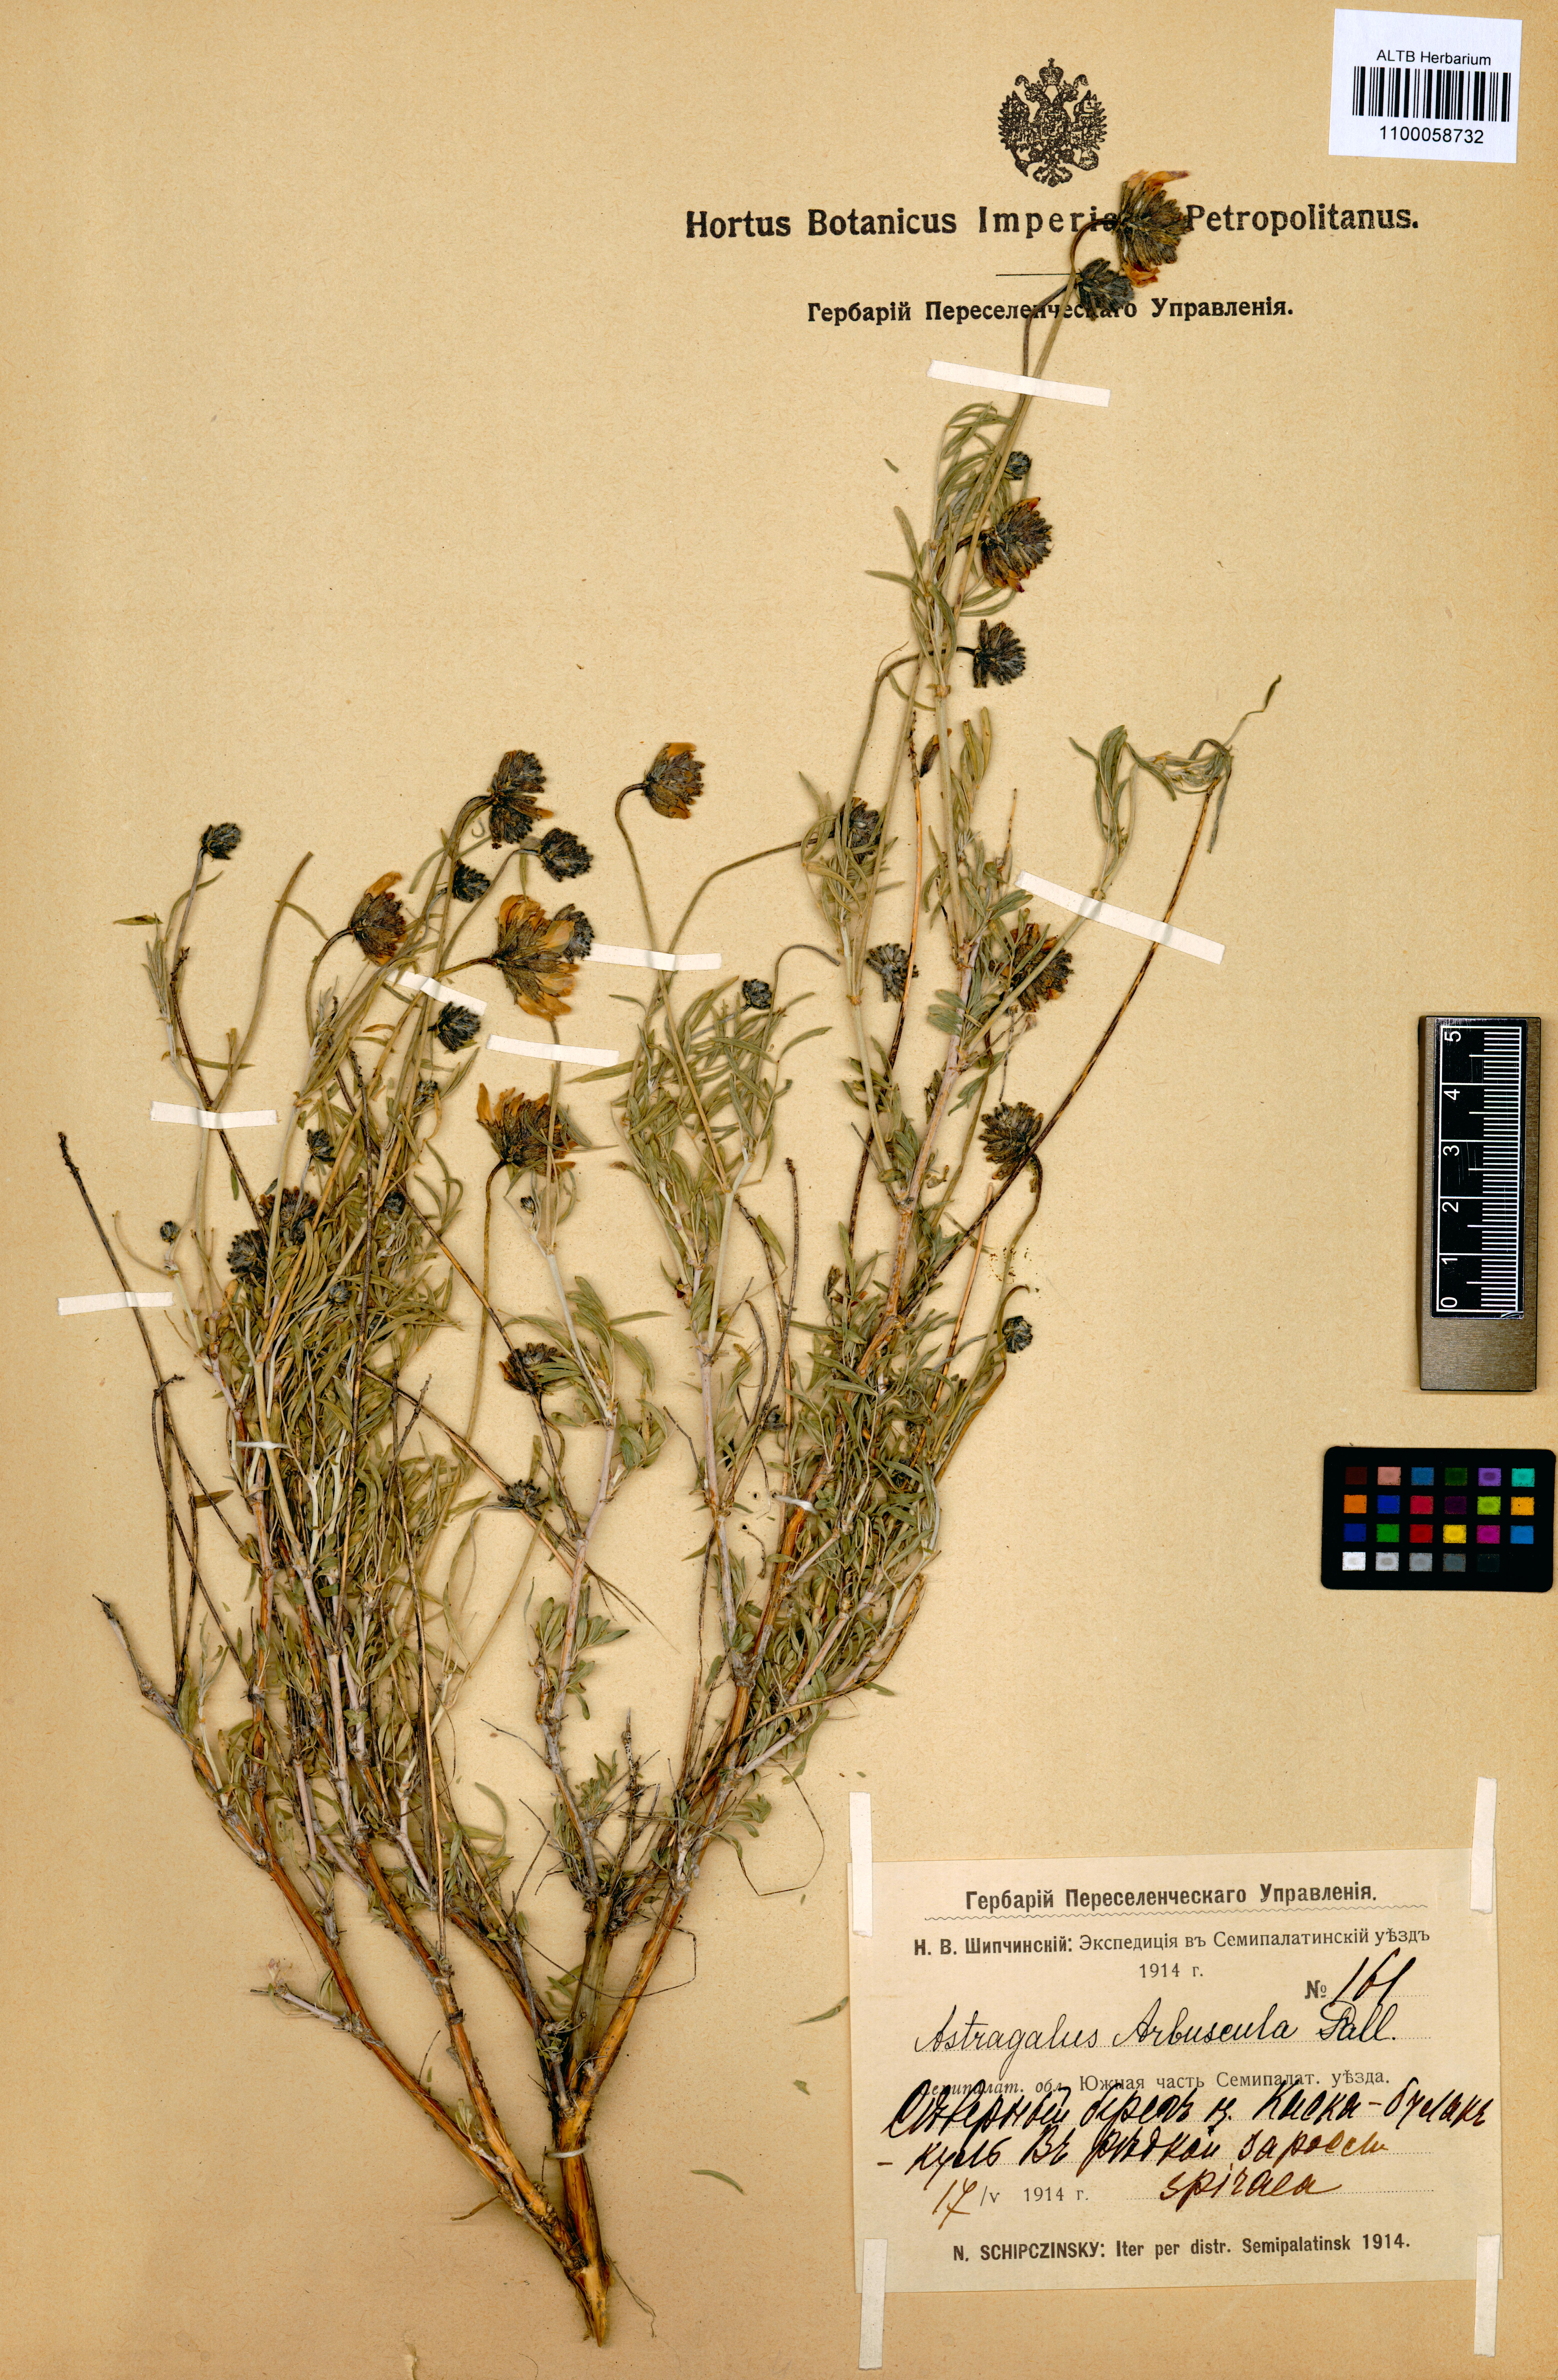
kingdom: Plantae
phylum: Tracheophyta
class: Magnoliopsida
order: Fabales
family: Fabaceae
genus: Astragalus
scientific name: Astragalus arbuscula
